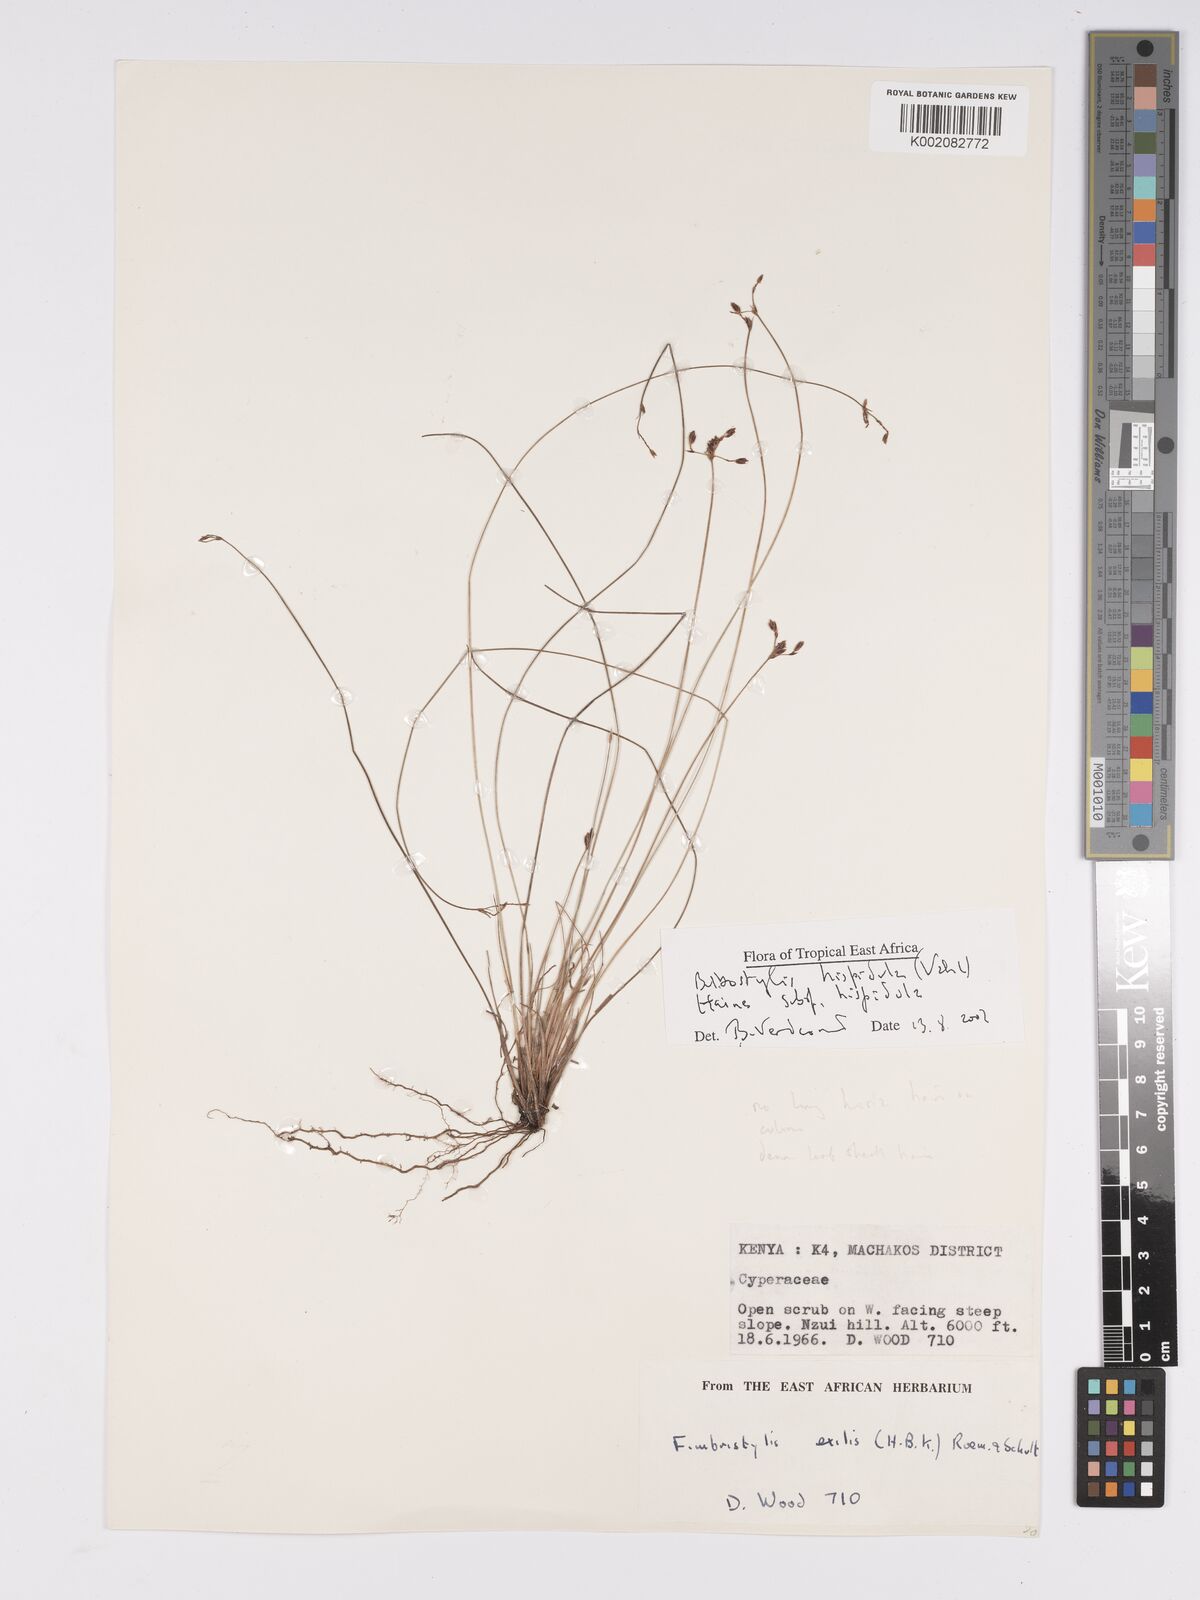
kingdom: Plantae
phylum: Tracheophyta
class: Liliopsida
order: Poales
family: Cyperaceae
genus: Bulbostylis
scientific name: Bulbostylis hispidula
